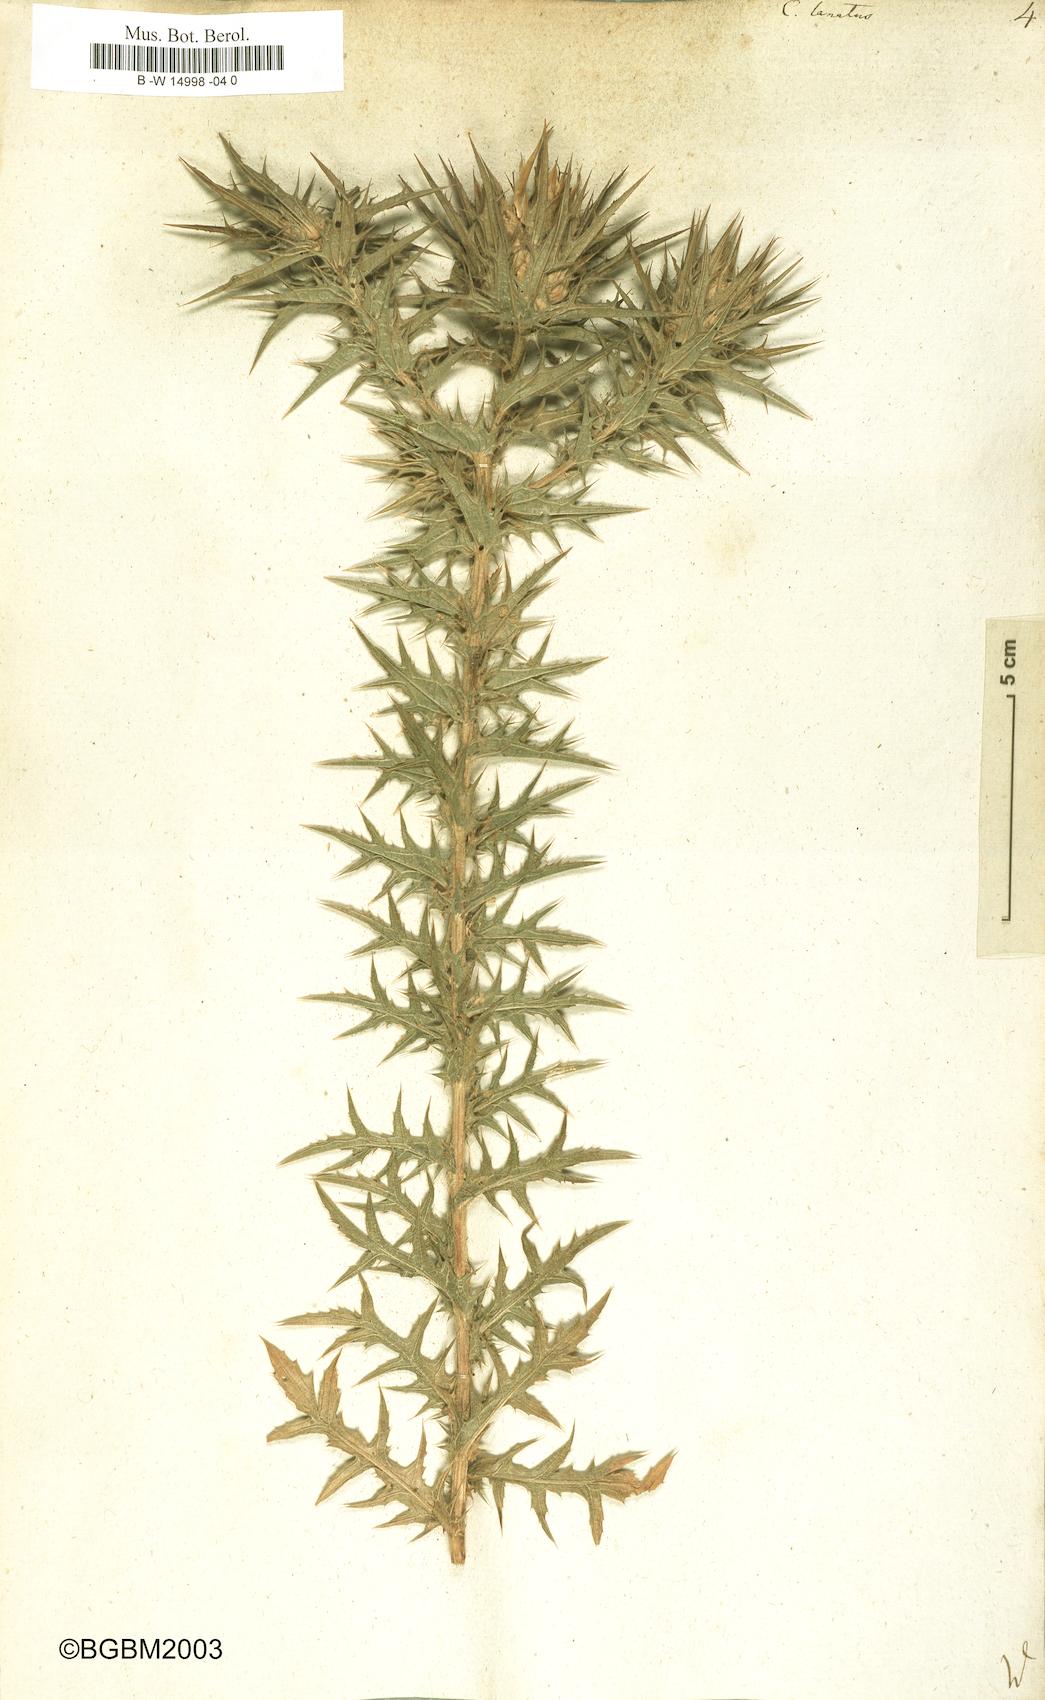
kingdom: Plantae
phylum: Tracheophyta
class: Magnoliopsida
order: Asterales
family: Asteraceae
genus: Carthamus
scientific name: Carthamus lanatus
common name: Downy safflower
